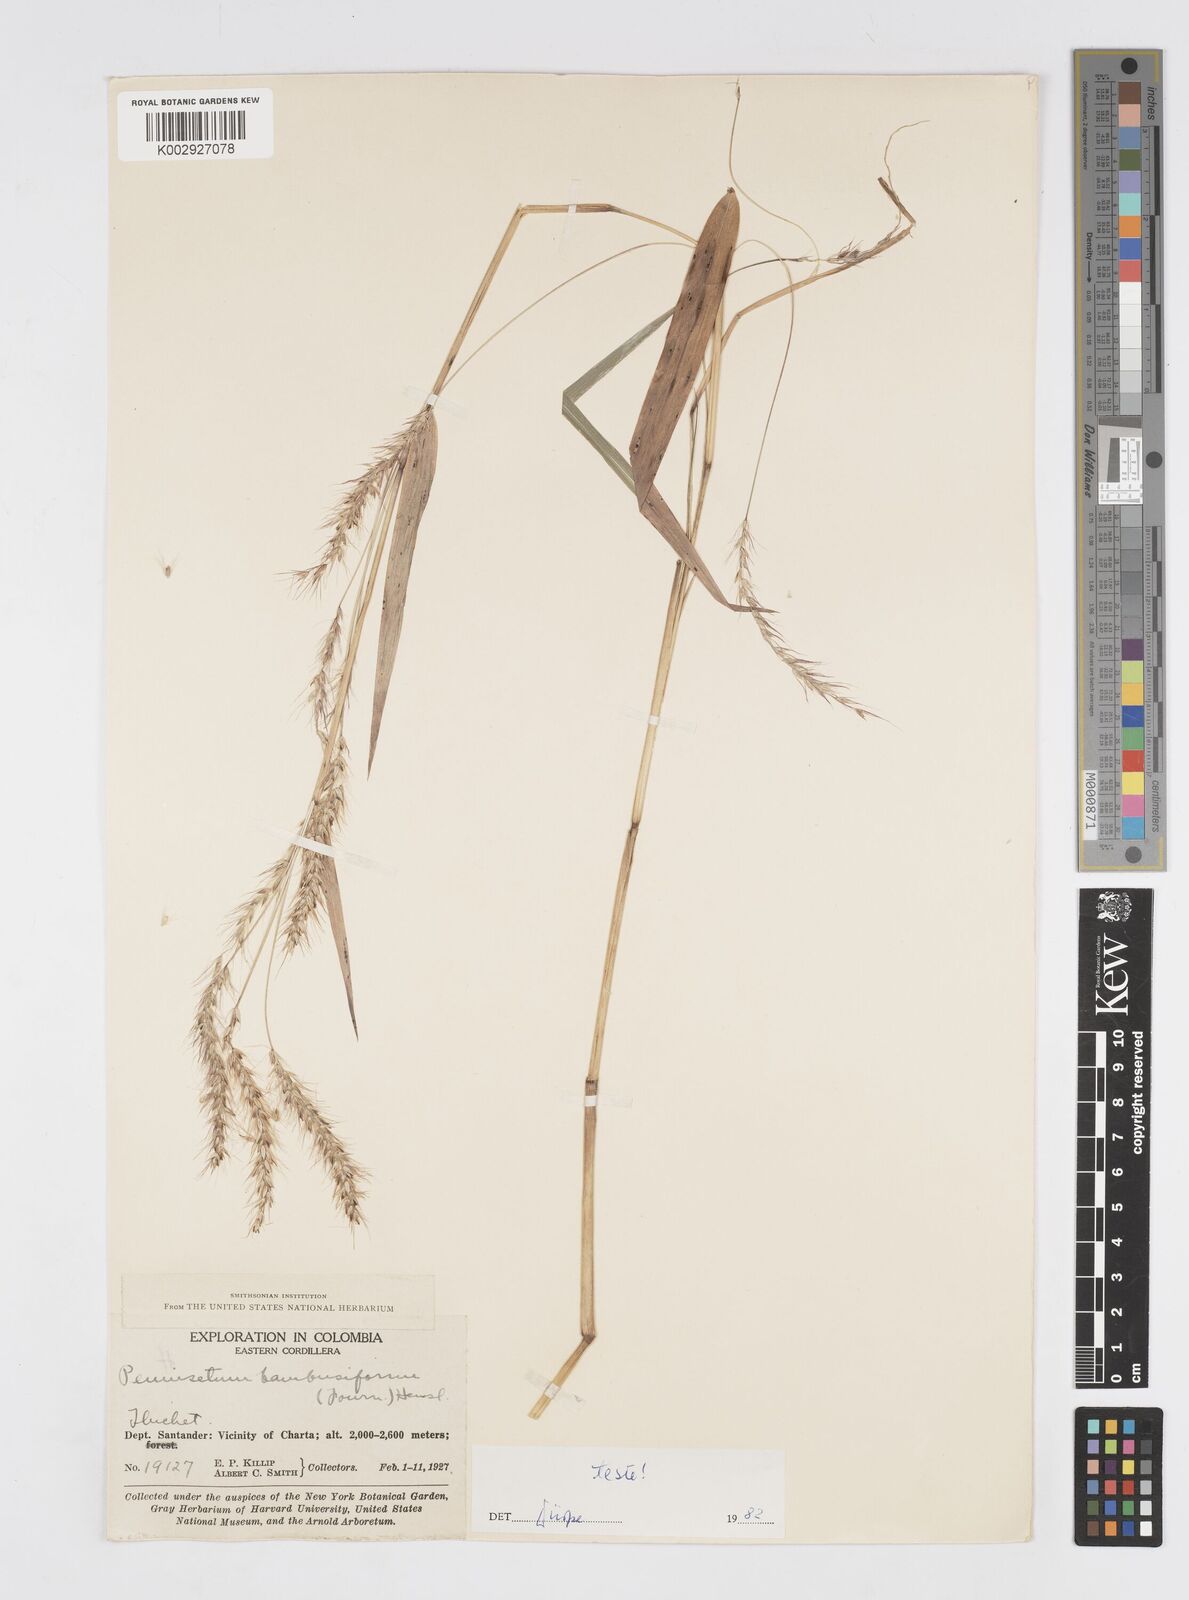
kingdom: Plantae
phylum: Tracheophyta
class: Liliopsida
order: Poales
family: Poaceae
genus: Cenchrus
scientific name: Cenchrus tristachyus
